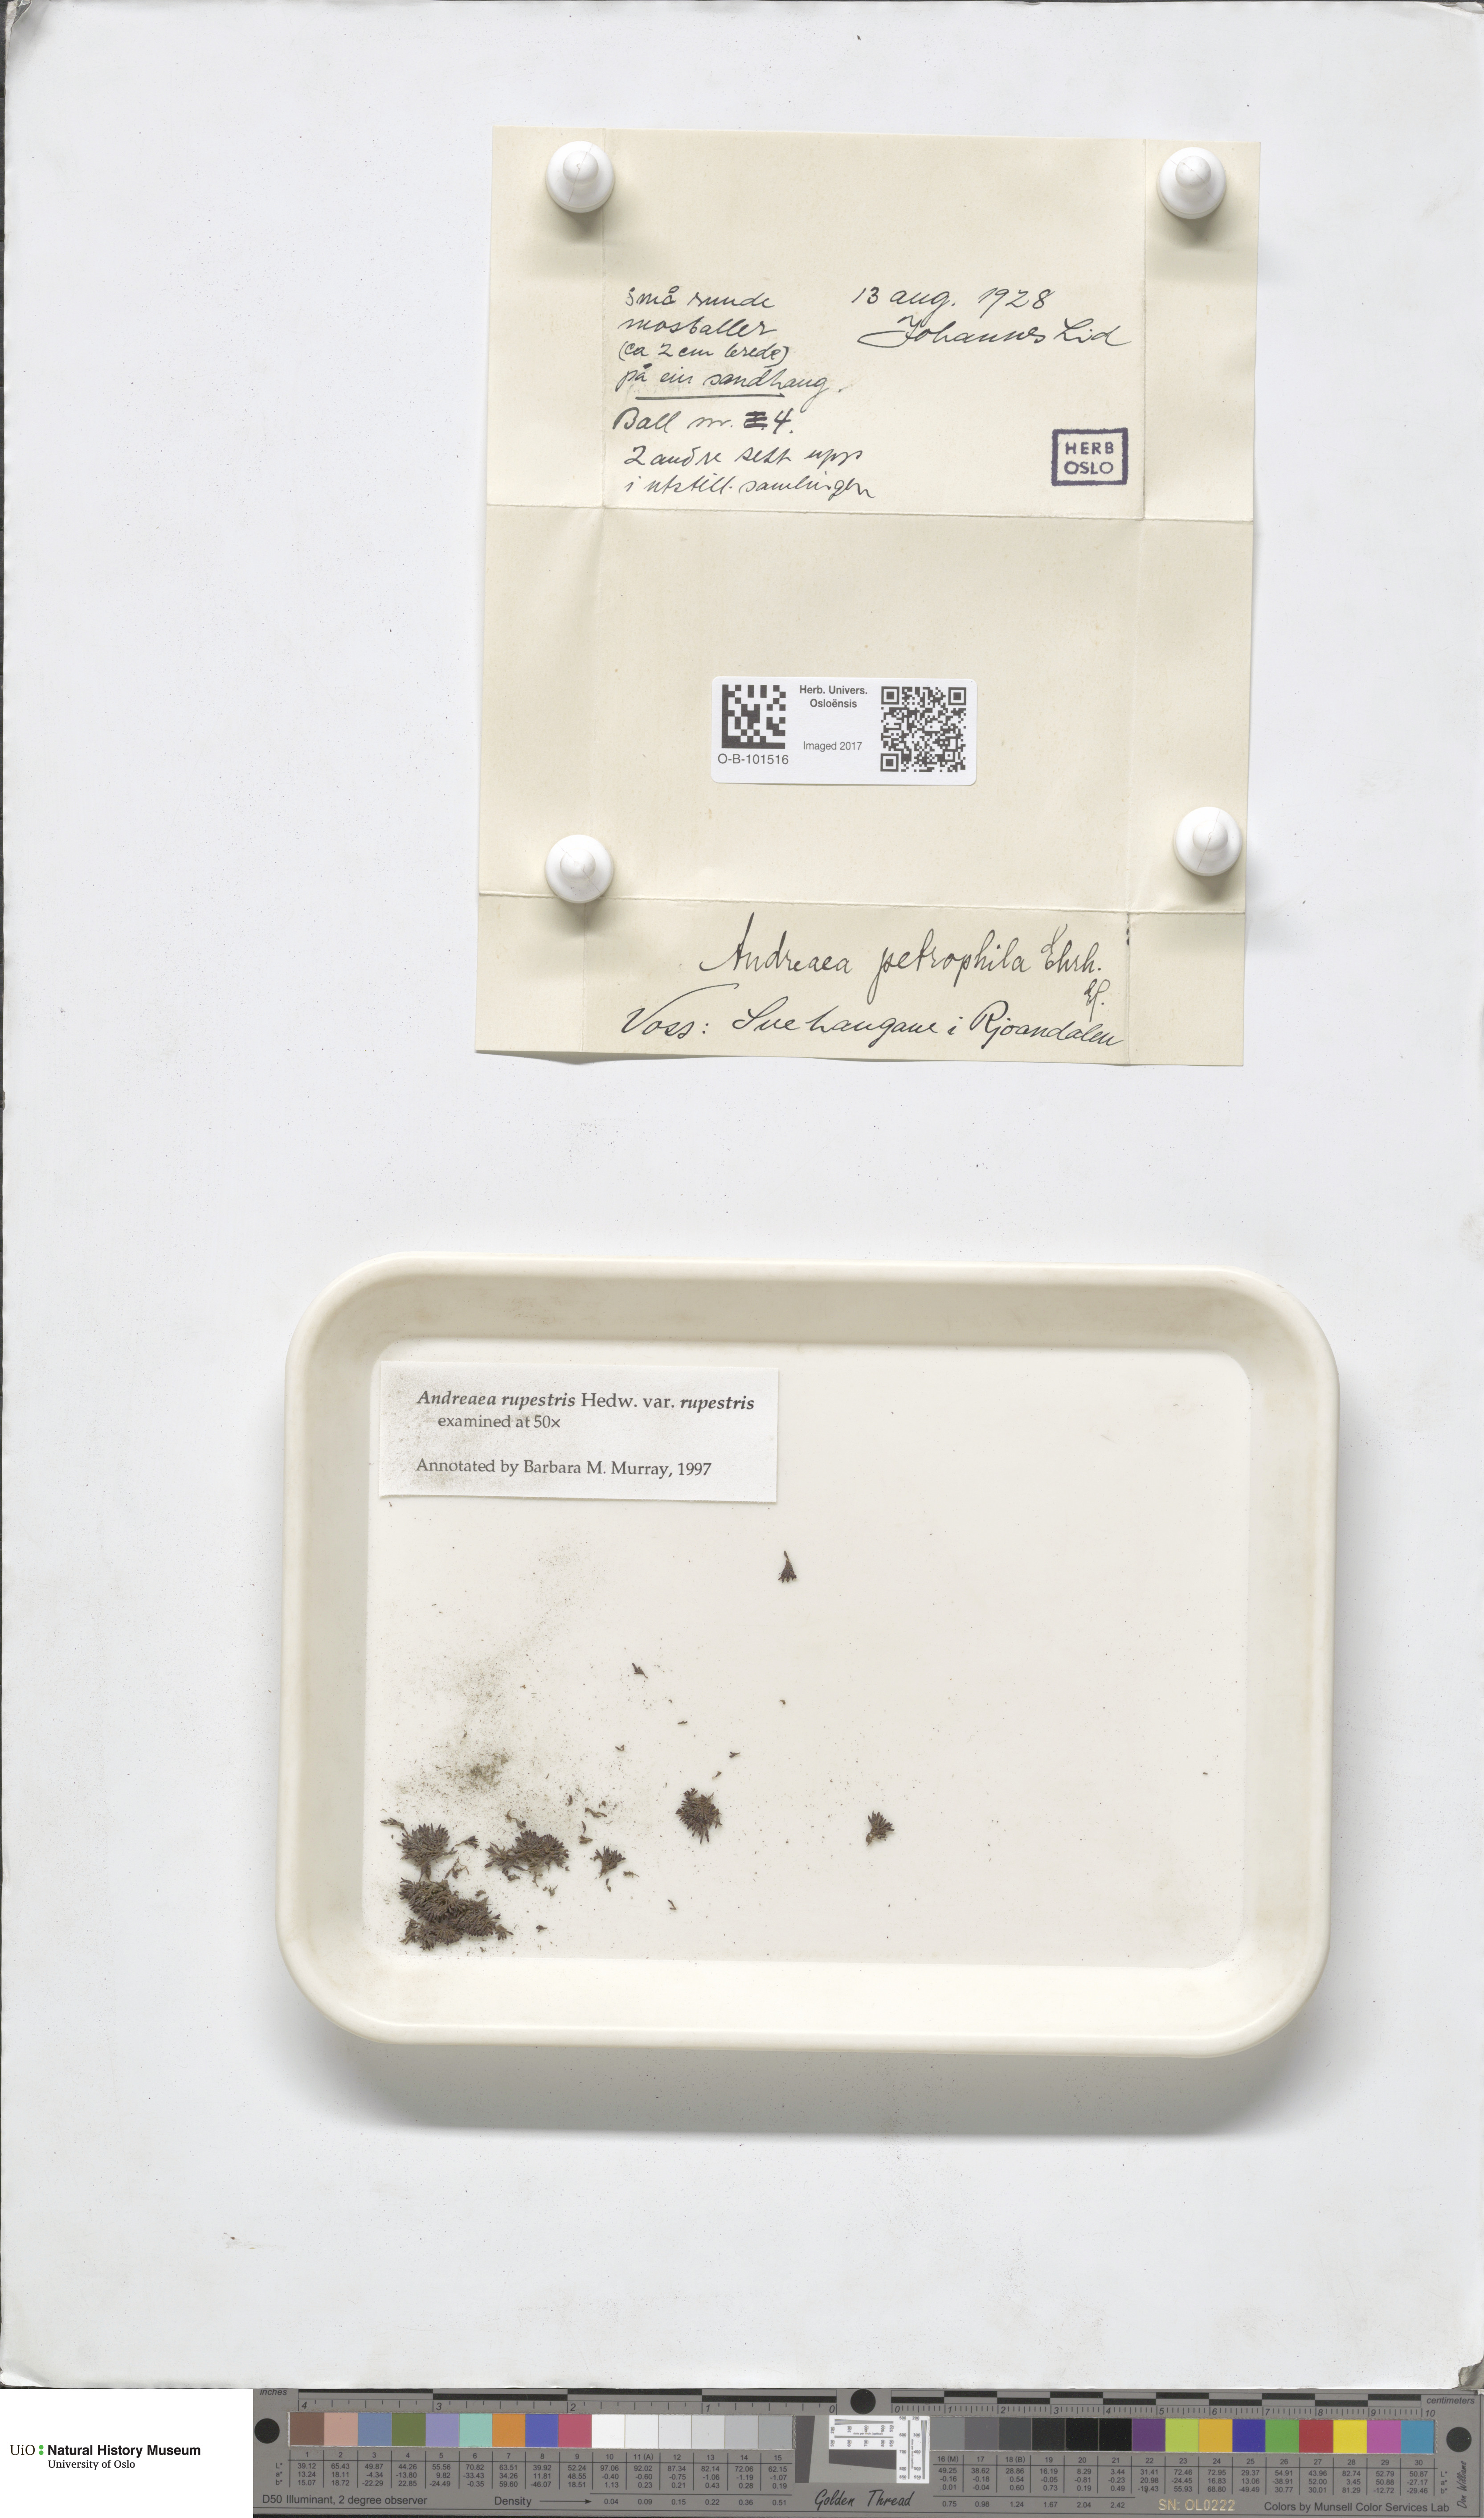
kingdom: Plantae
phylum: Bryophyta
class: Andreaeopsida
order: Andreaeales
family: Andreaeaceae
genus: Andreaea
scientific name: Andreaea rupestris
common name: Black rock moss
